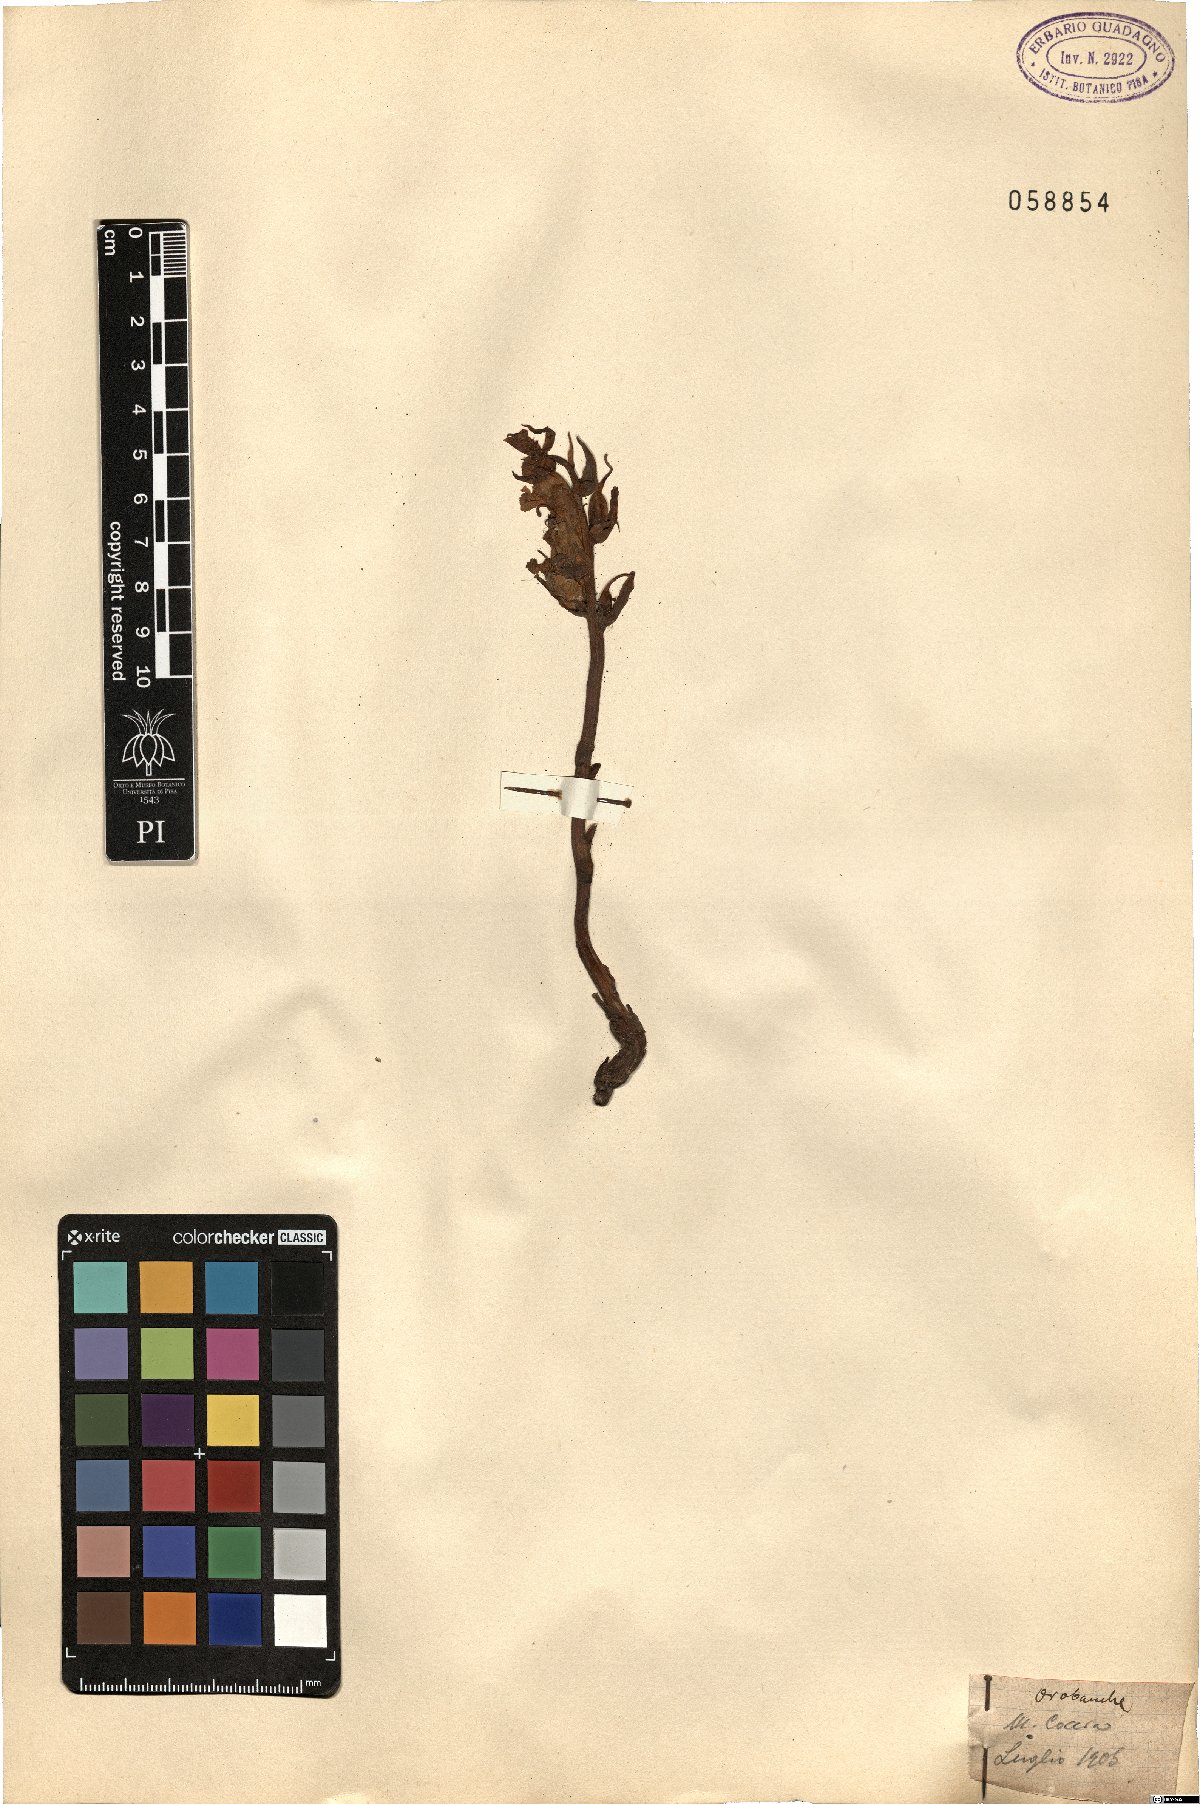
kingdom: Plantae
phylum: Tracheophyta
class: Magnoliopsida
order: Lamiales
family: Orobanchaceae
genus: Orobanche
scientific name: Orobanche
